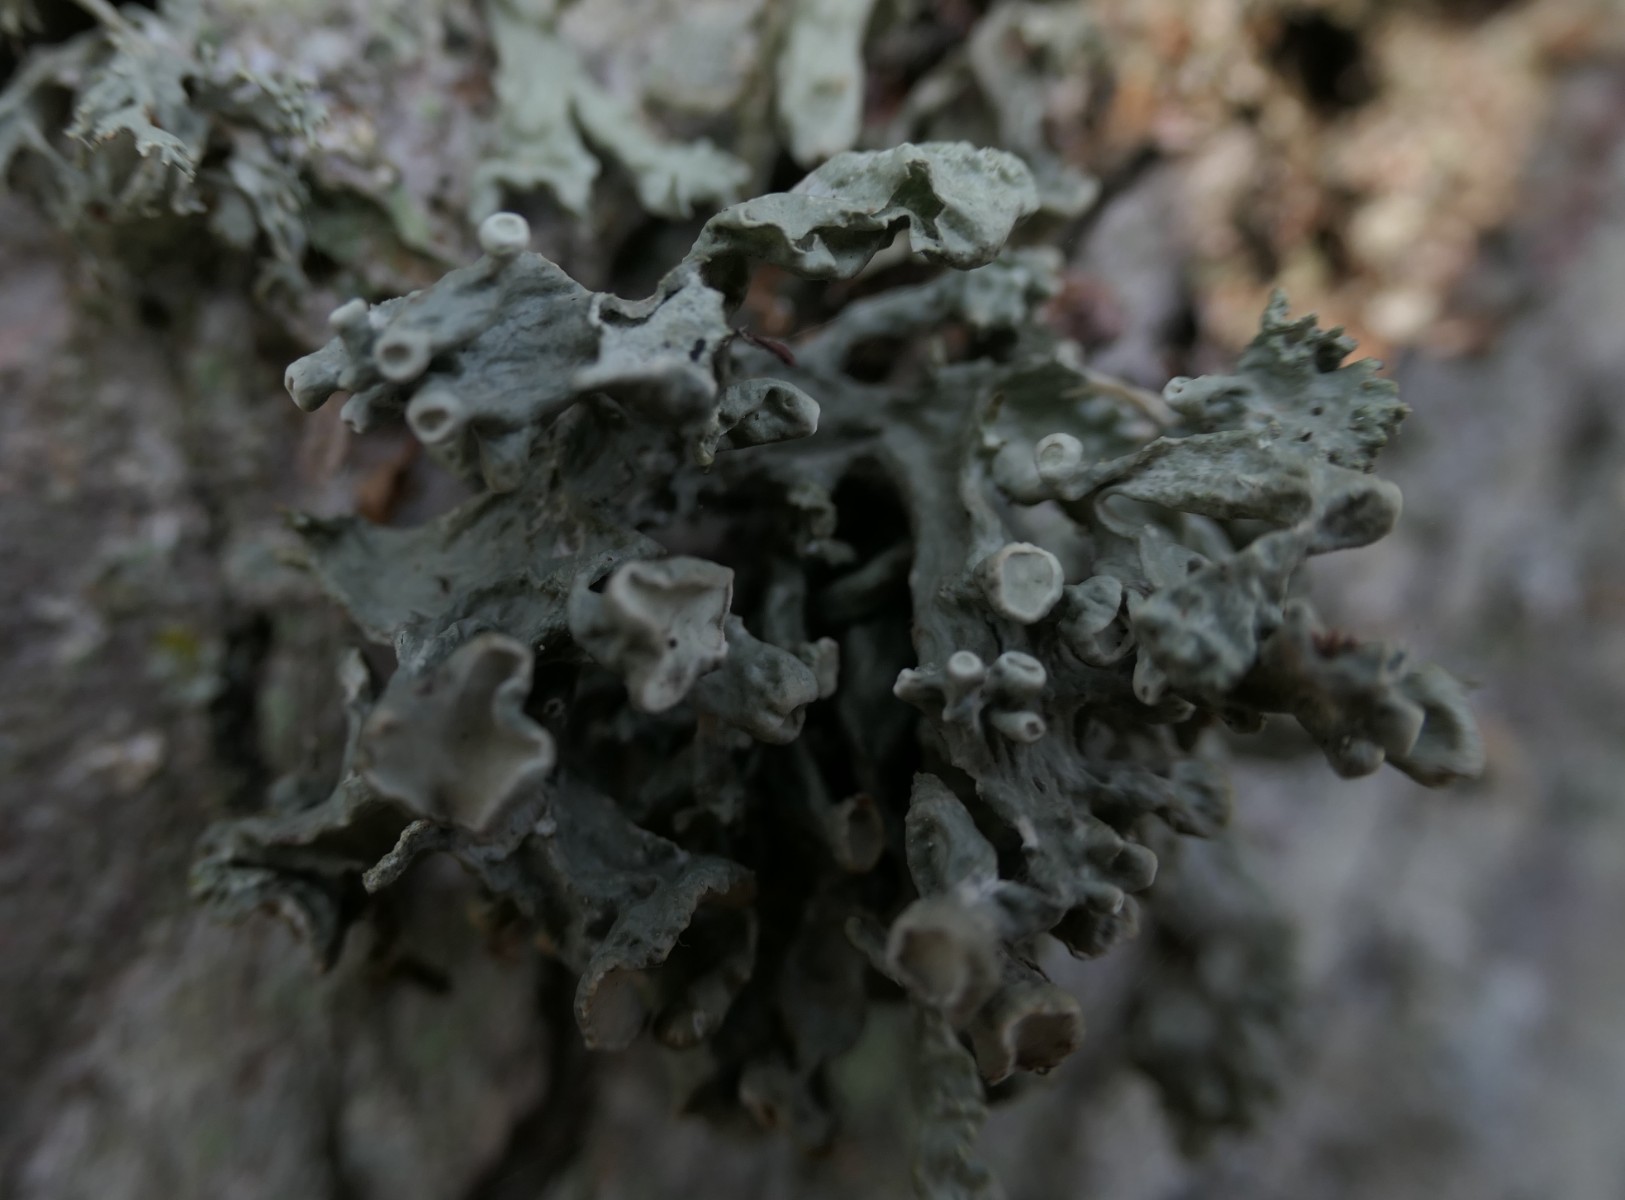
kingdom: Fungi
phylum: Ascomycota
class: Lecanoromycetes
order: Lecanorales
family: Ramalinaceae
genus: Ramalina
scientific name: Ramalina fastigiata
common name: tue-grenlav
